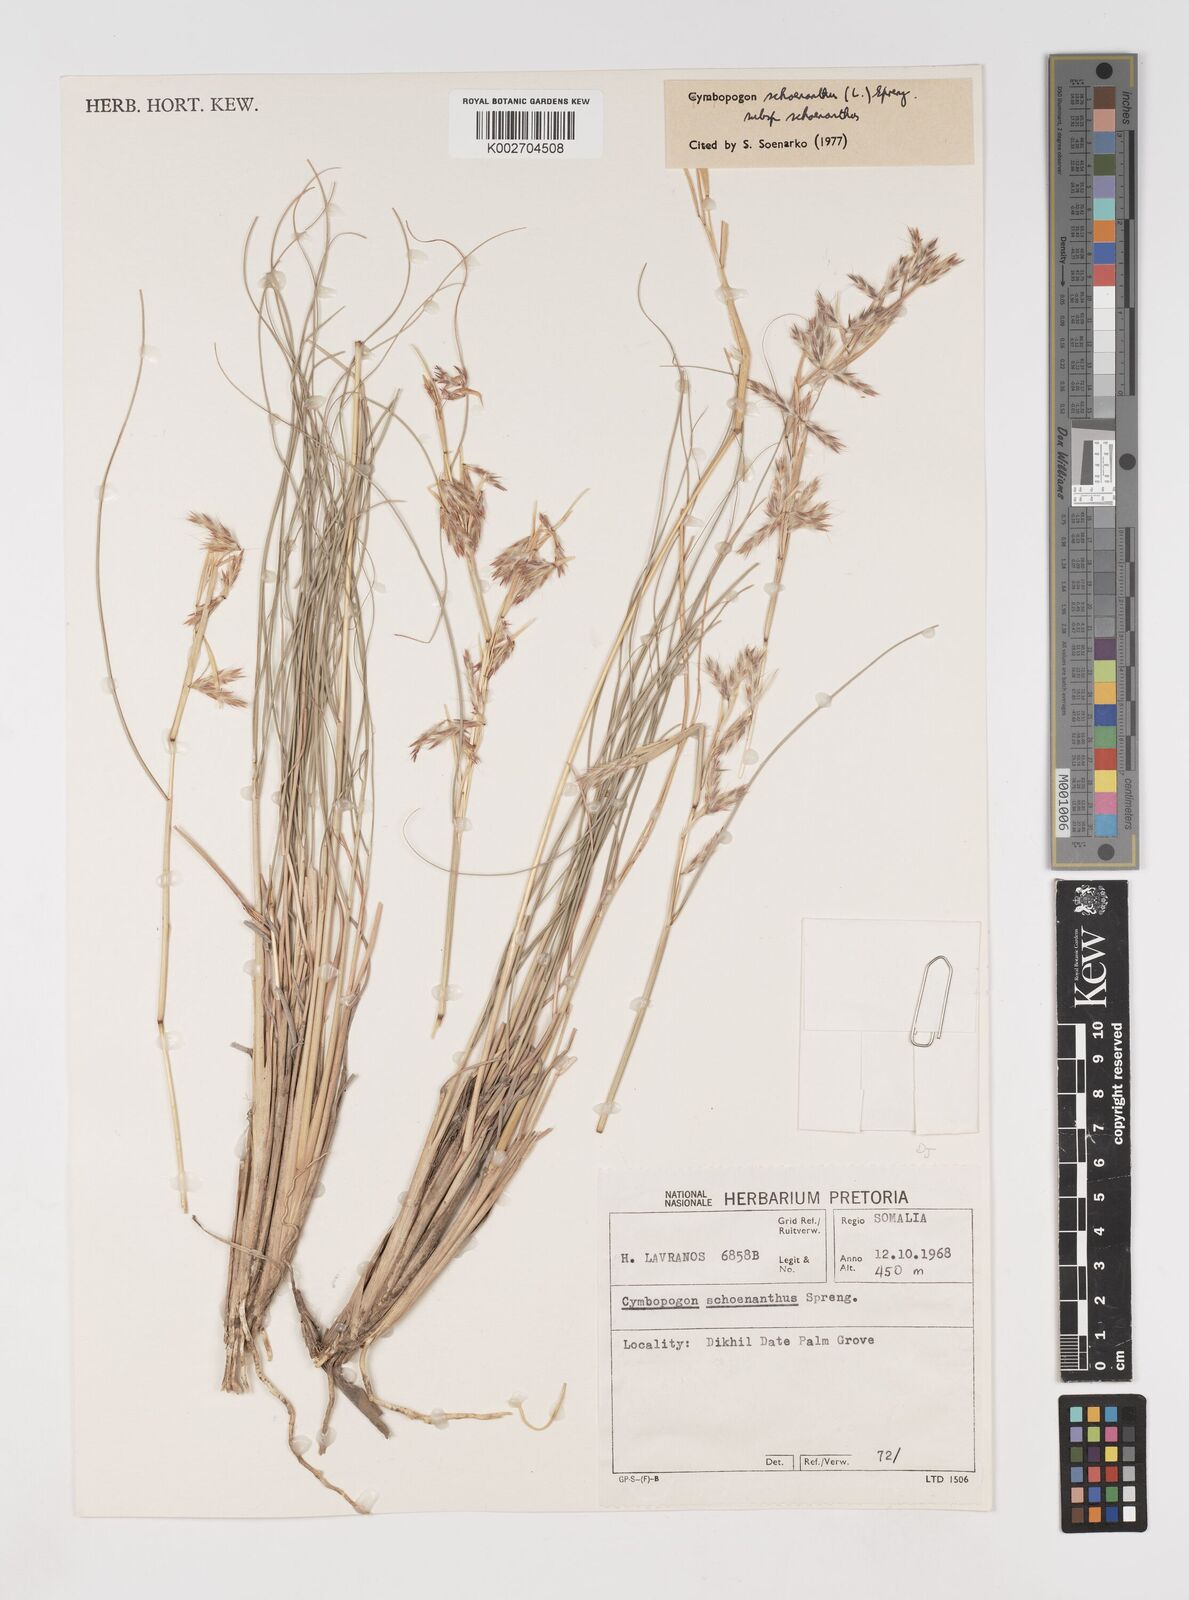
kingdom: Plantae
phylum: Tracheophyta
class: Liliopsida
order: Poales
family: Poaceae
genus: Cymbopogon
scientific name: Cymbopogon schoenanthus
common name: Geranium grass
